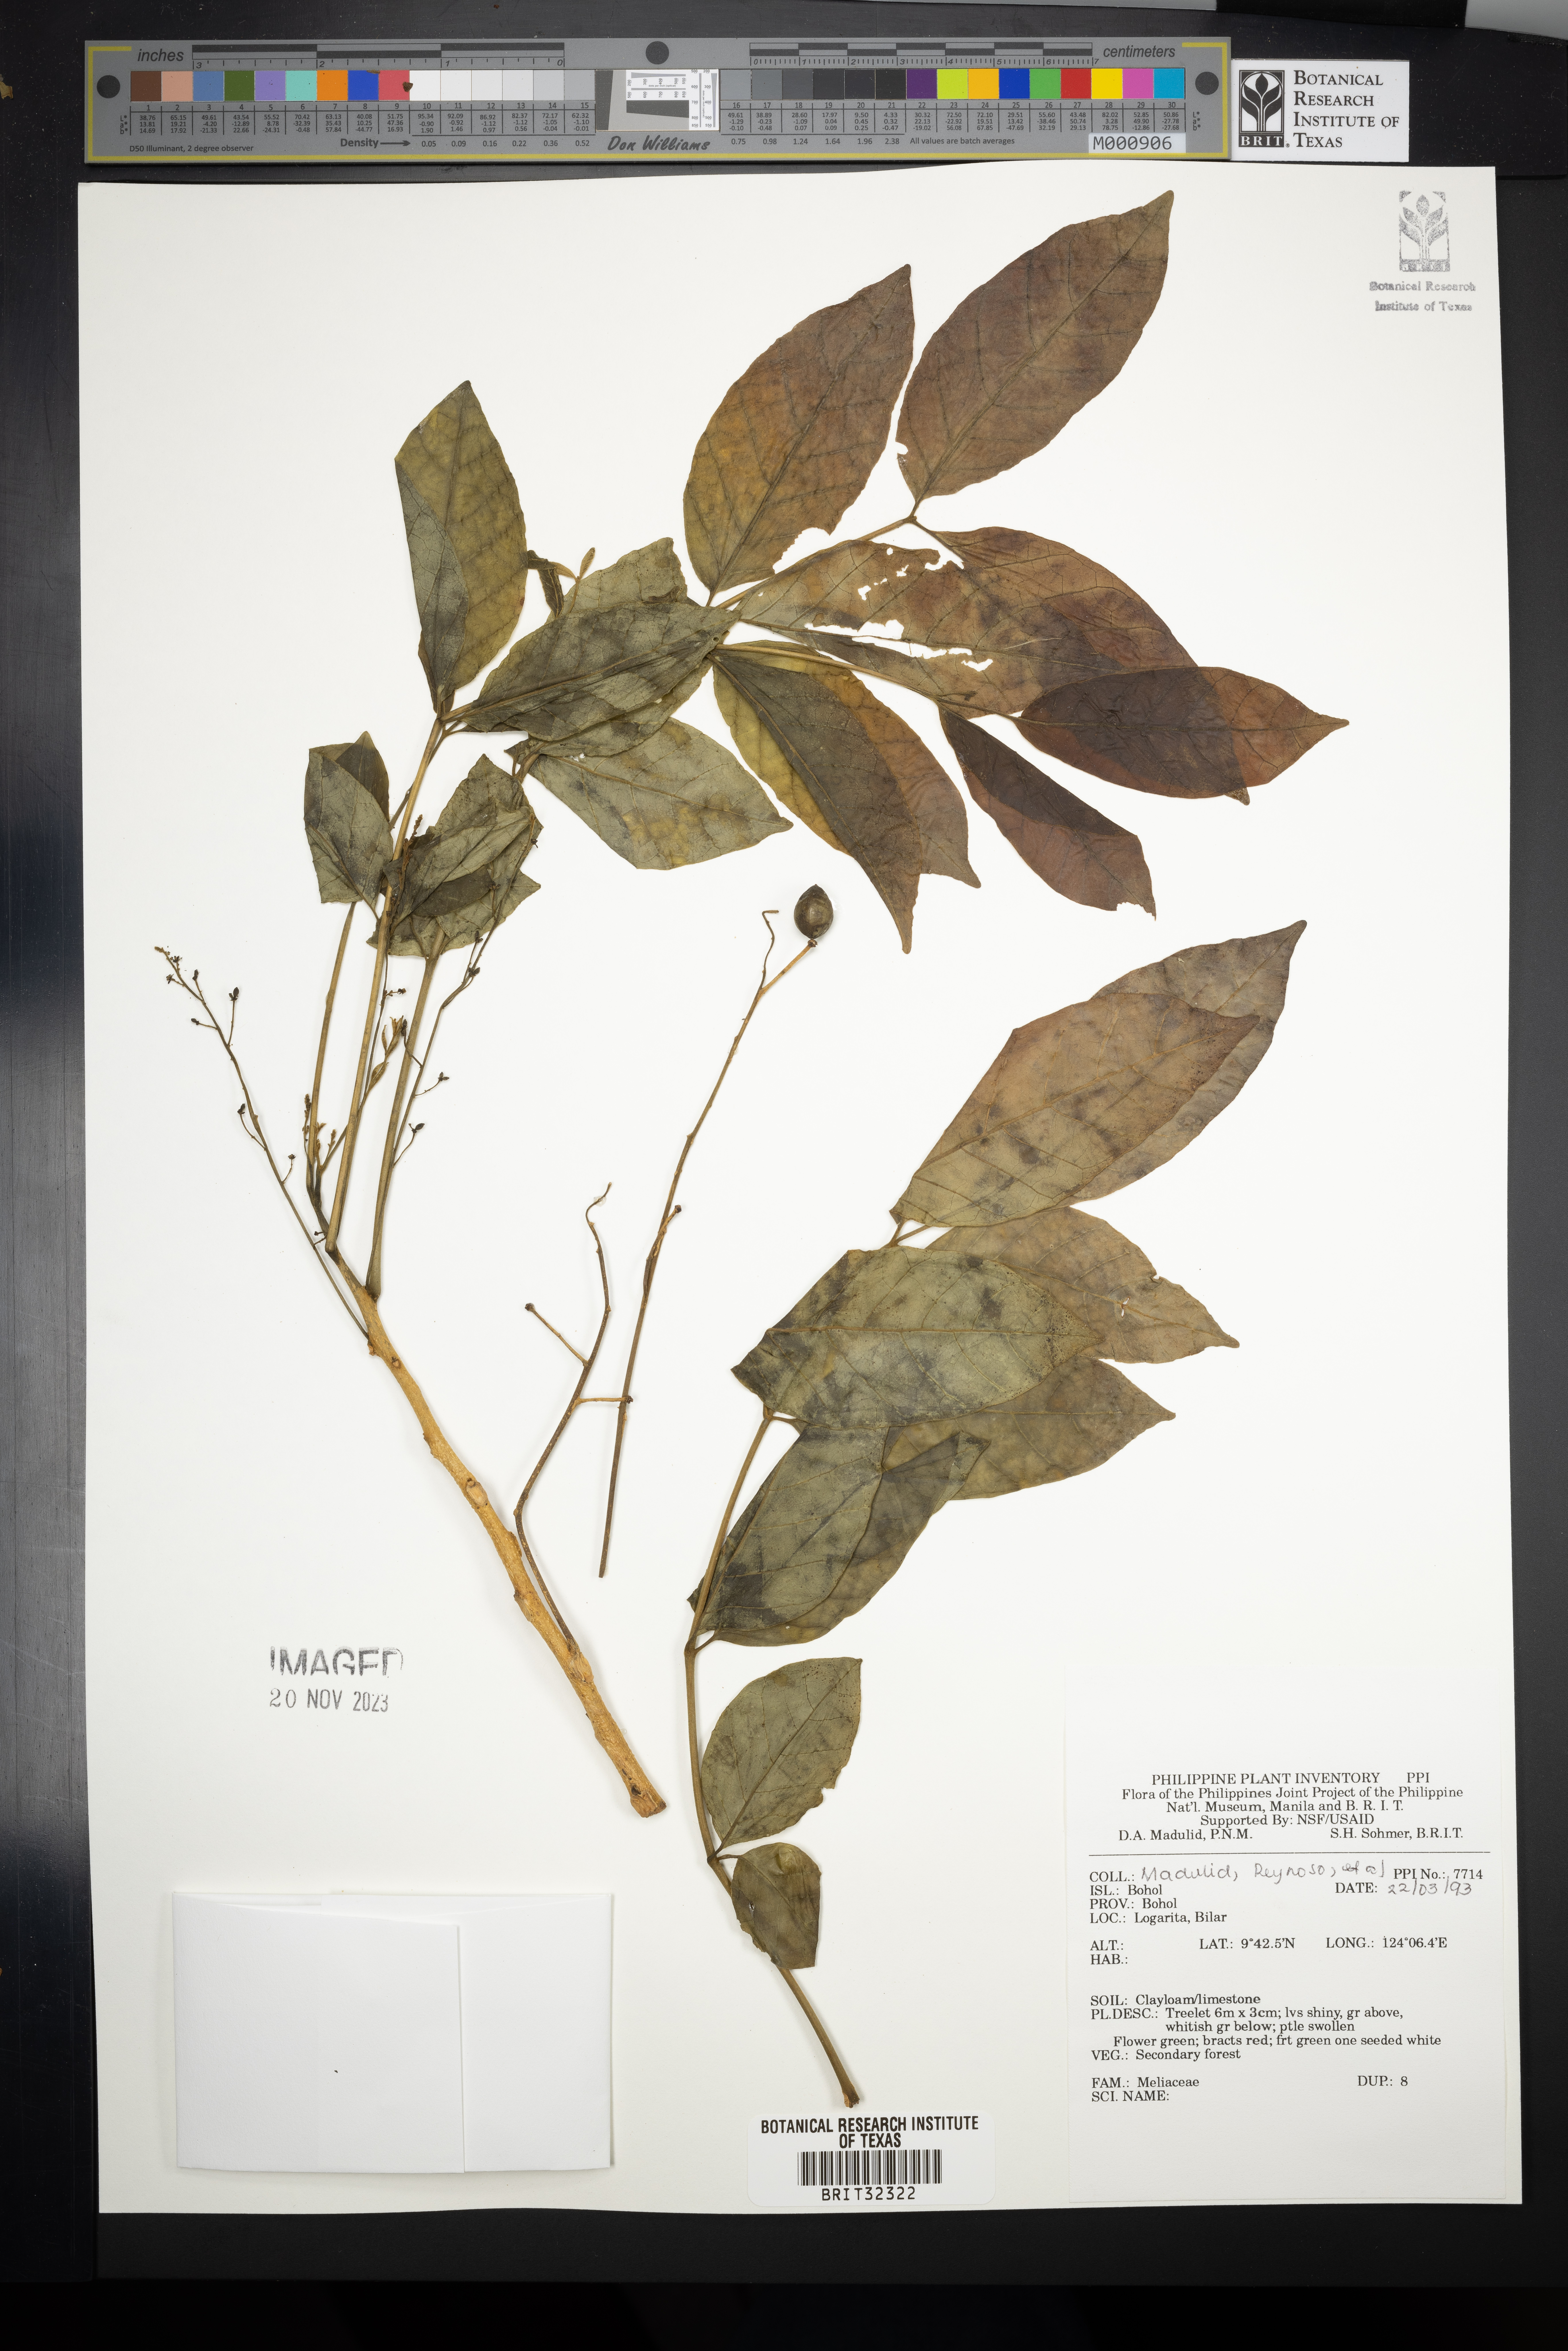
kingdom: Plantae
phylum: Tracheophyta
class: Magnoliopsida
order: Sapindales
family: Meliaceae
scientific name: Meliaceae
